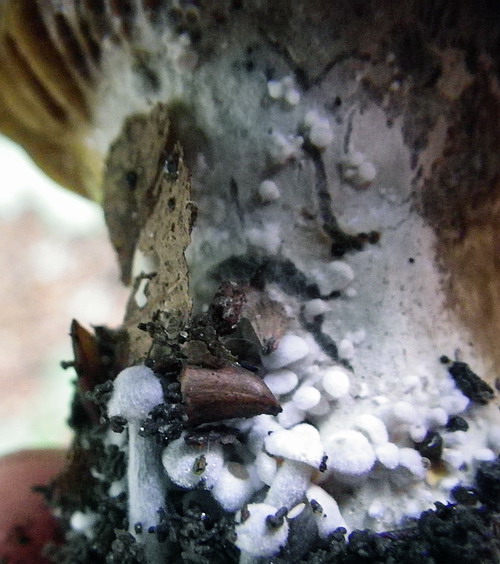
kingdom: Fungi
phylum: Basidiomycota
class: Agaricomycetes
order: Agaricales
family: Lyophyllaceae
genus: Asterophora
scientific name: Asterophora parasitica
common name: grå snyltehat
